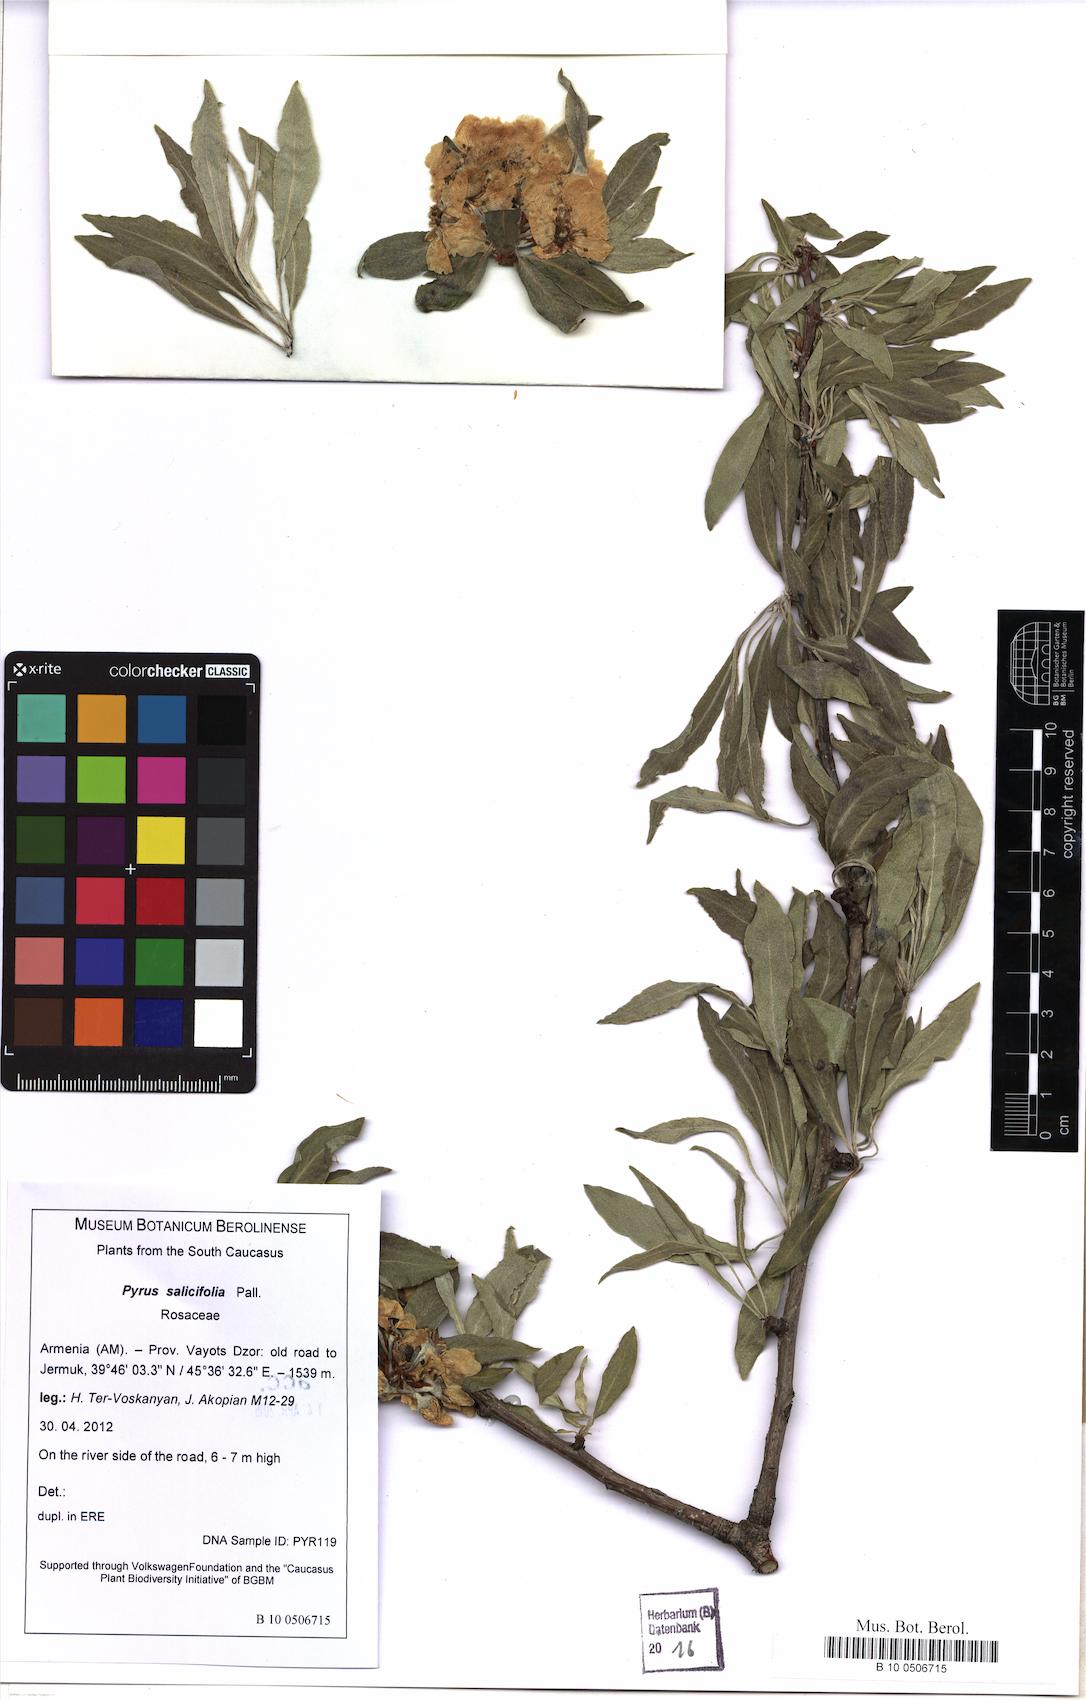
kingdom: Plantae
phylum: Tracheophyta
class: Magnoliopsida
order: Rosales
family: Rosaceae
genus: Pyrus
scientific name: Pyrus salicifolia
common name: Willow-leaved pear
